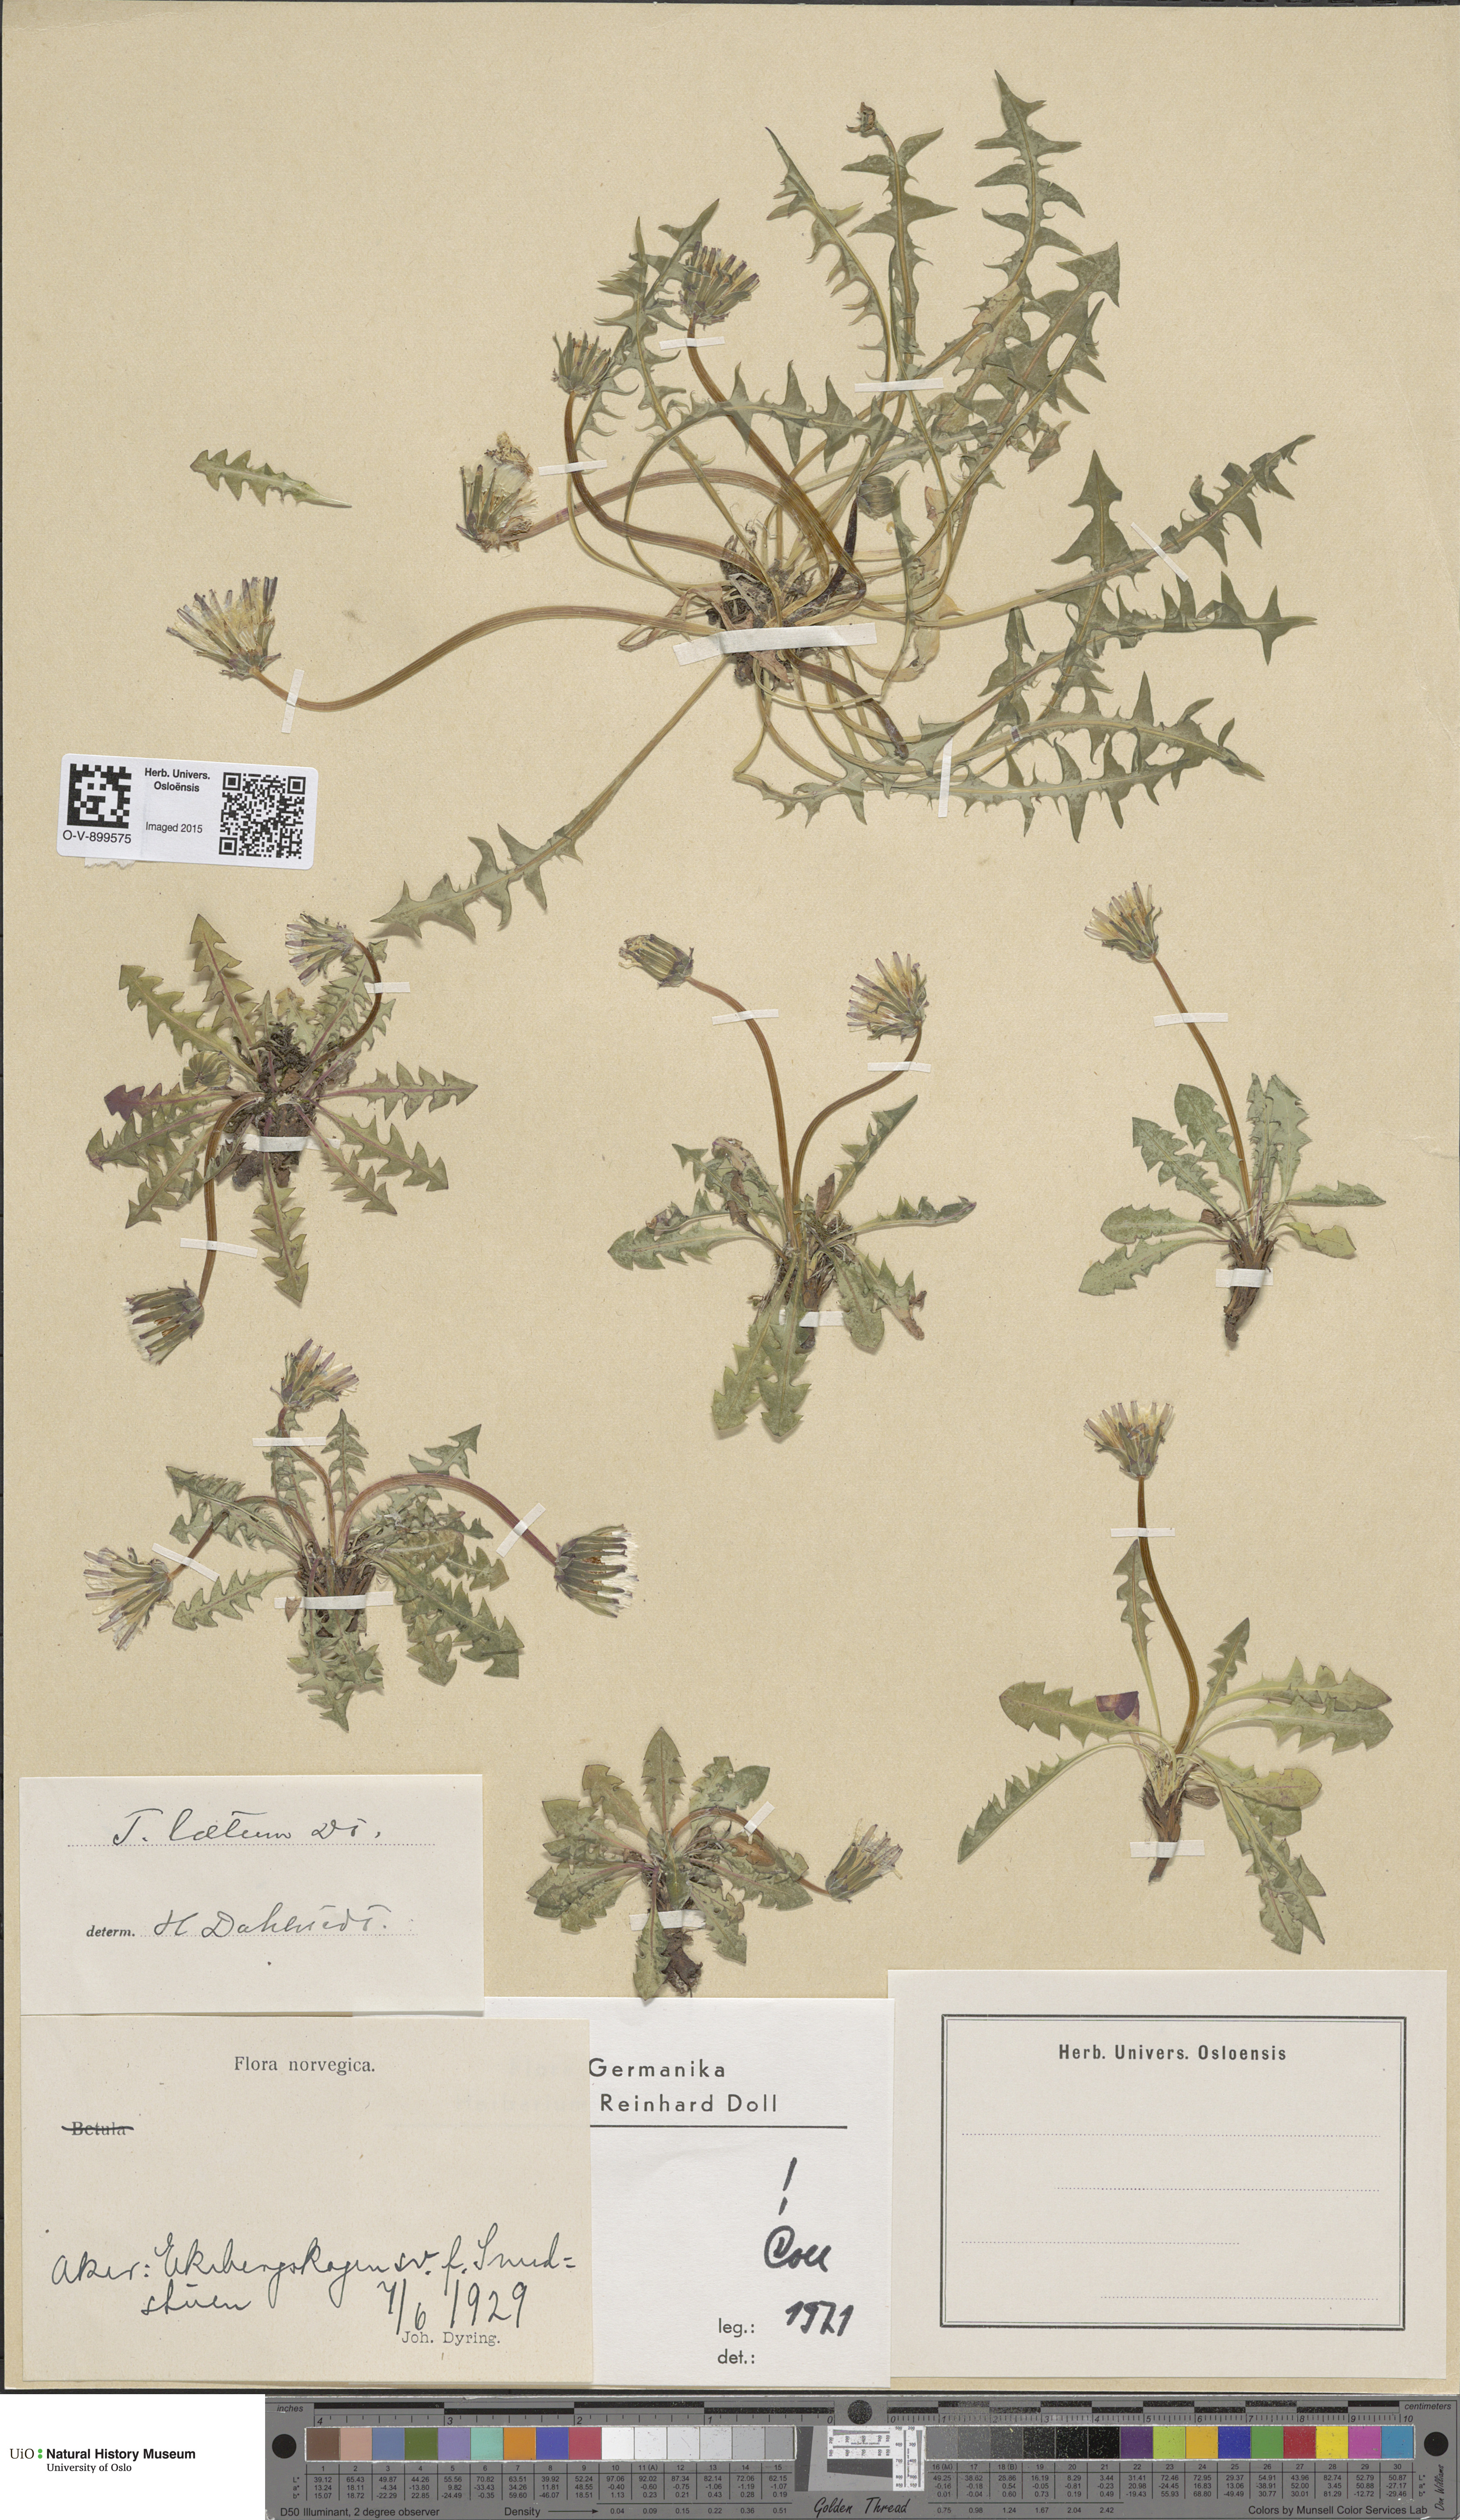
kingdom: Plantae
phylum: Tracheophyta
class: Magnoliopsida
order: Asterales
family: Asteraceae
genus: Taraxacum
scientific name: Taraxacum laetum
